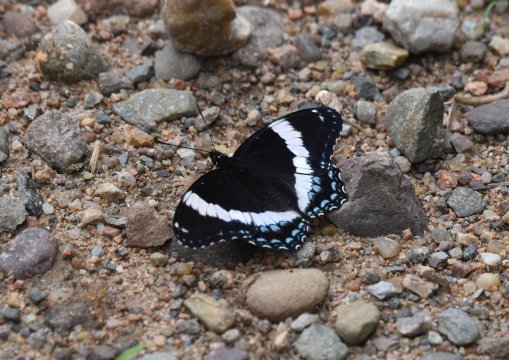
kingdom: Animalia
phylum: Arthropoda
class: Insecta
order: Lepidoptera
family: Nymphalidae
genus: Limenitis
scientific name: Limenitis
